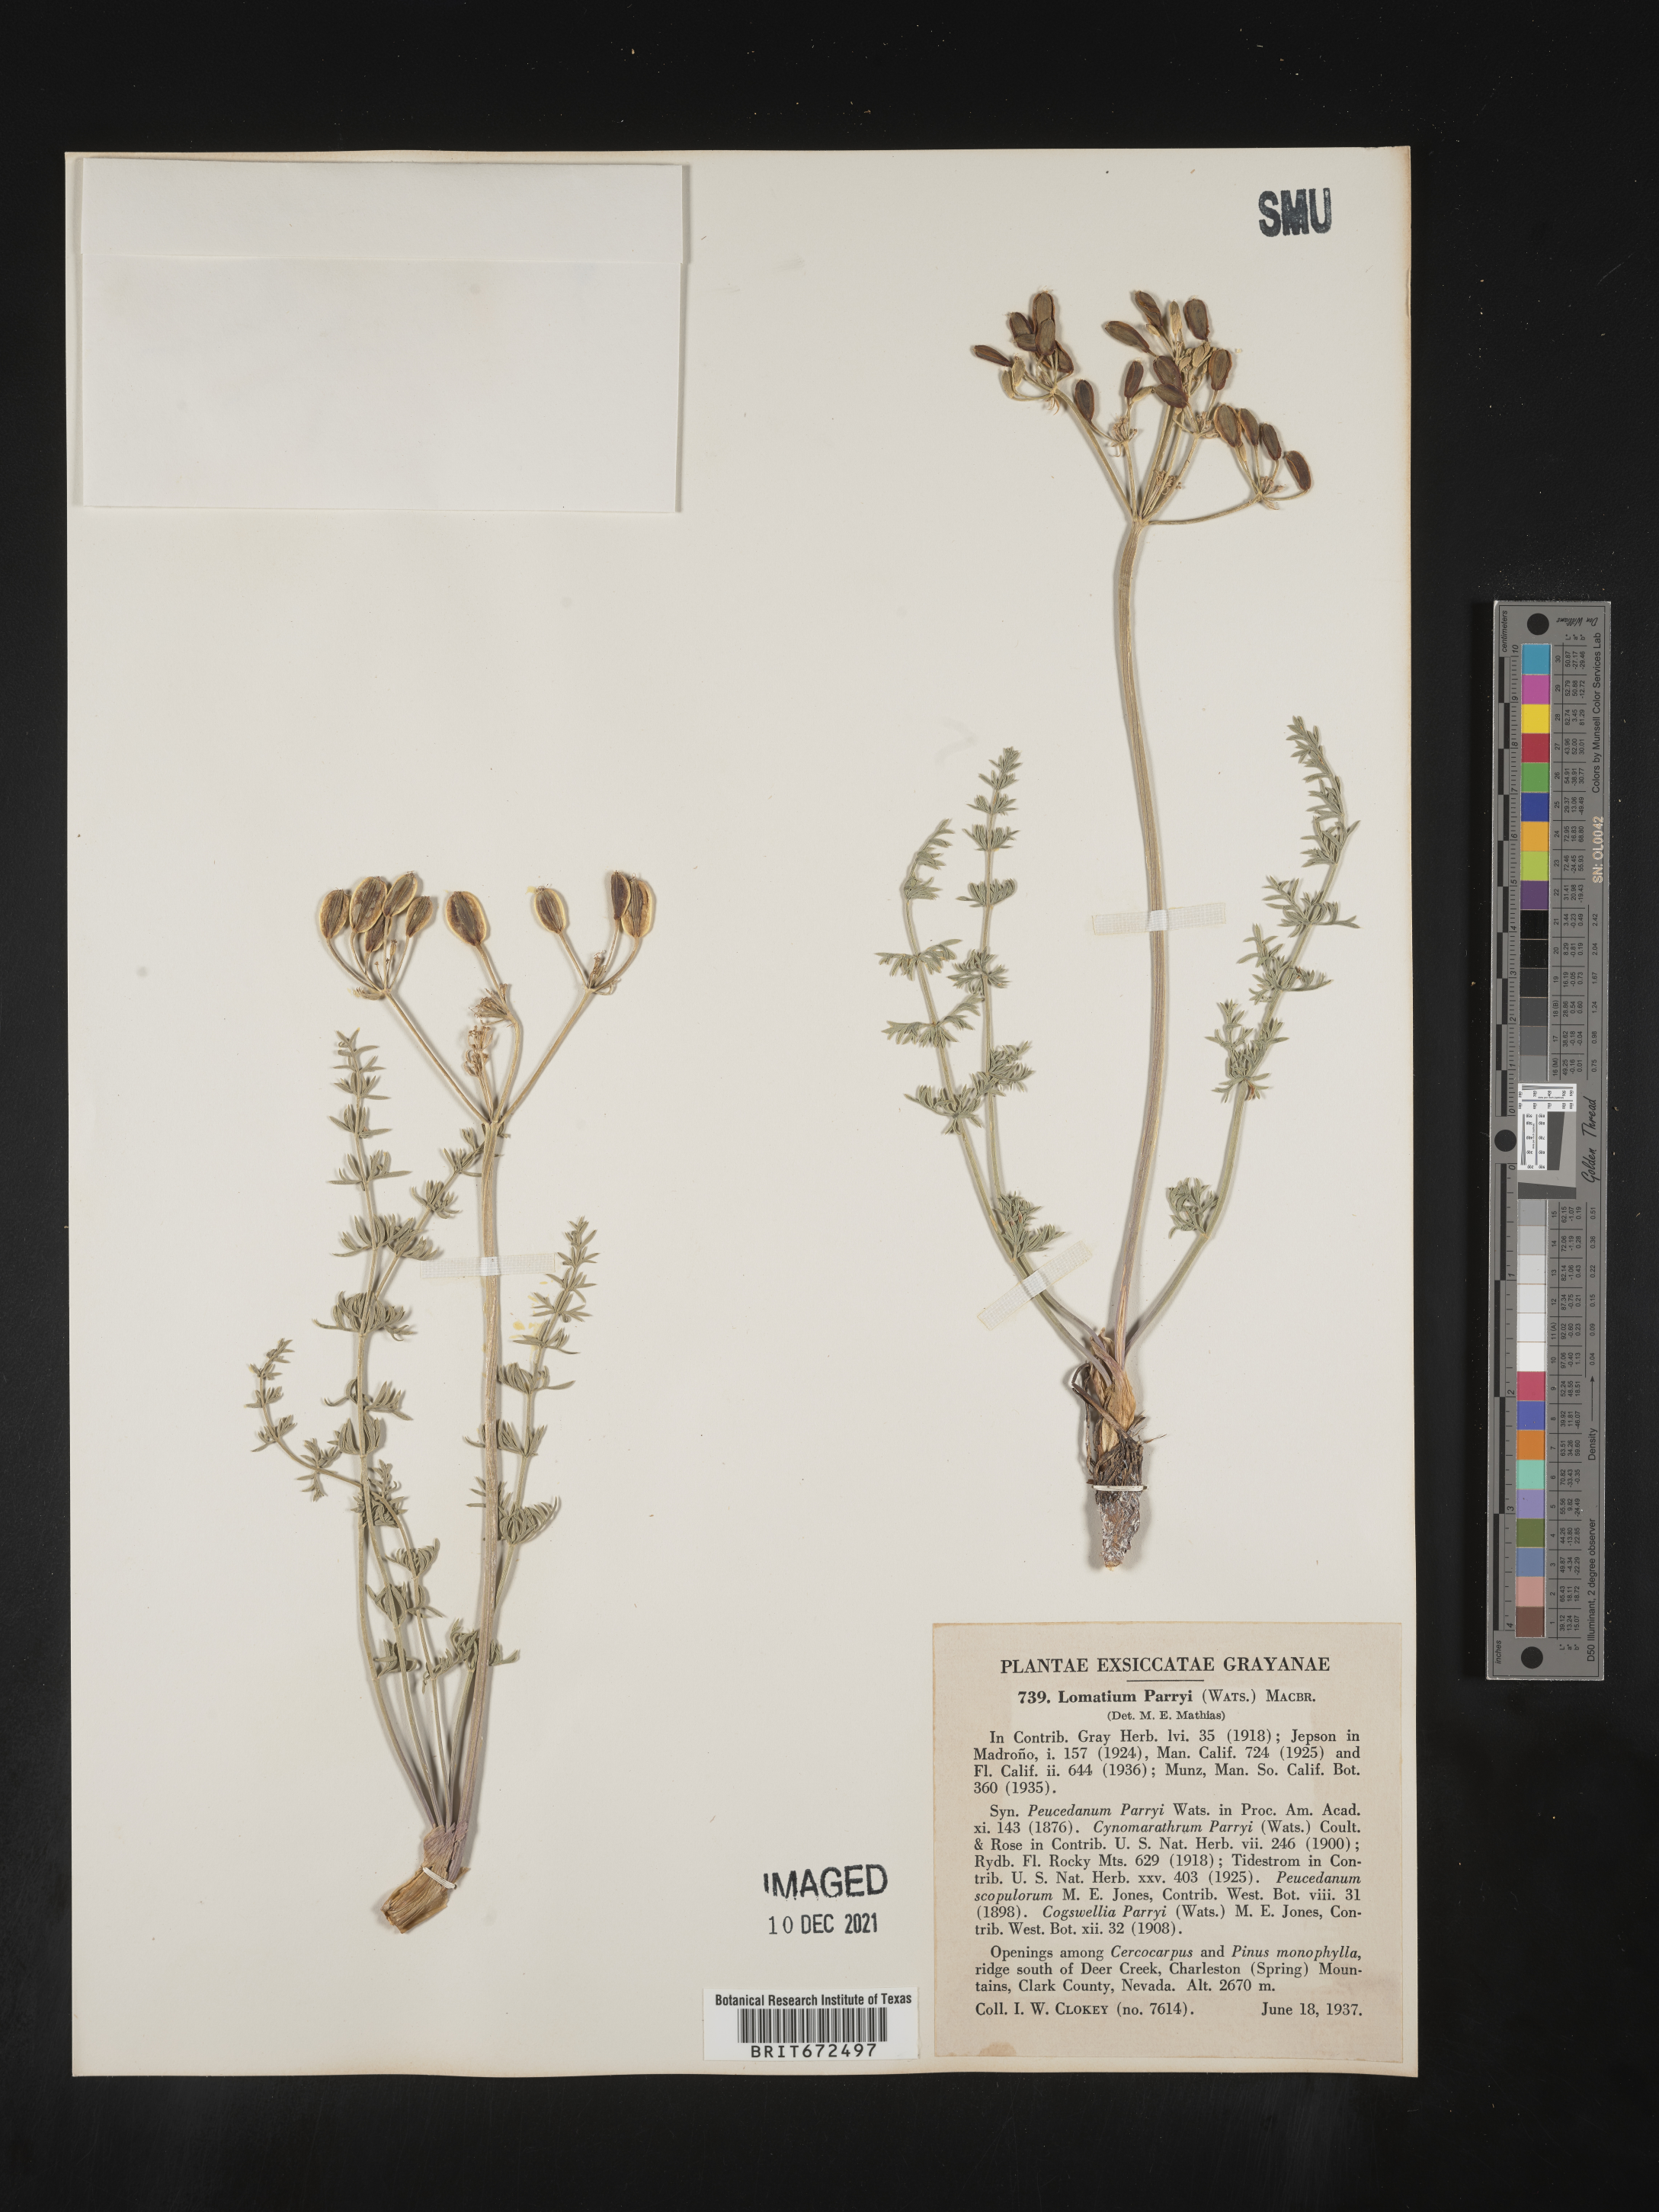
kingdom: Plantae
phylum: Tracheophyta
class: Magnoliopsida
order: Apiales
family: Apiaceae
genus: Lomatium
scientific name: Lomatium parryi
